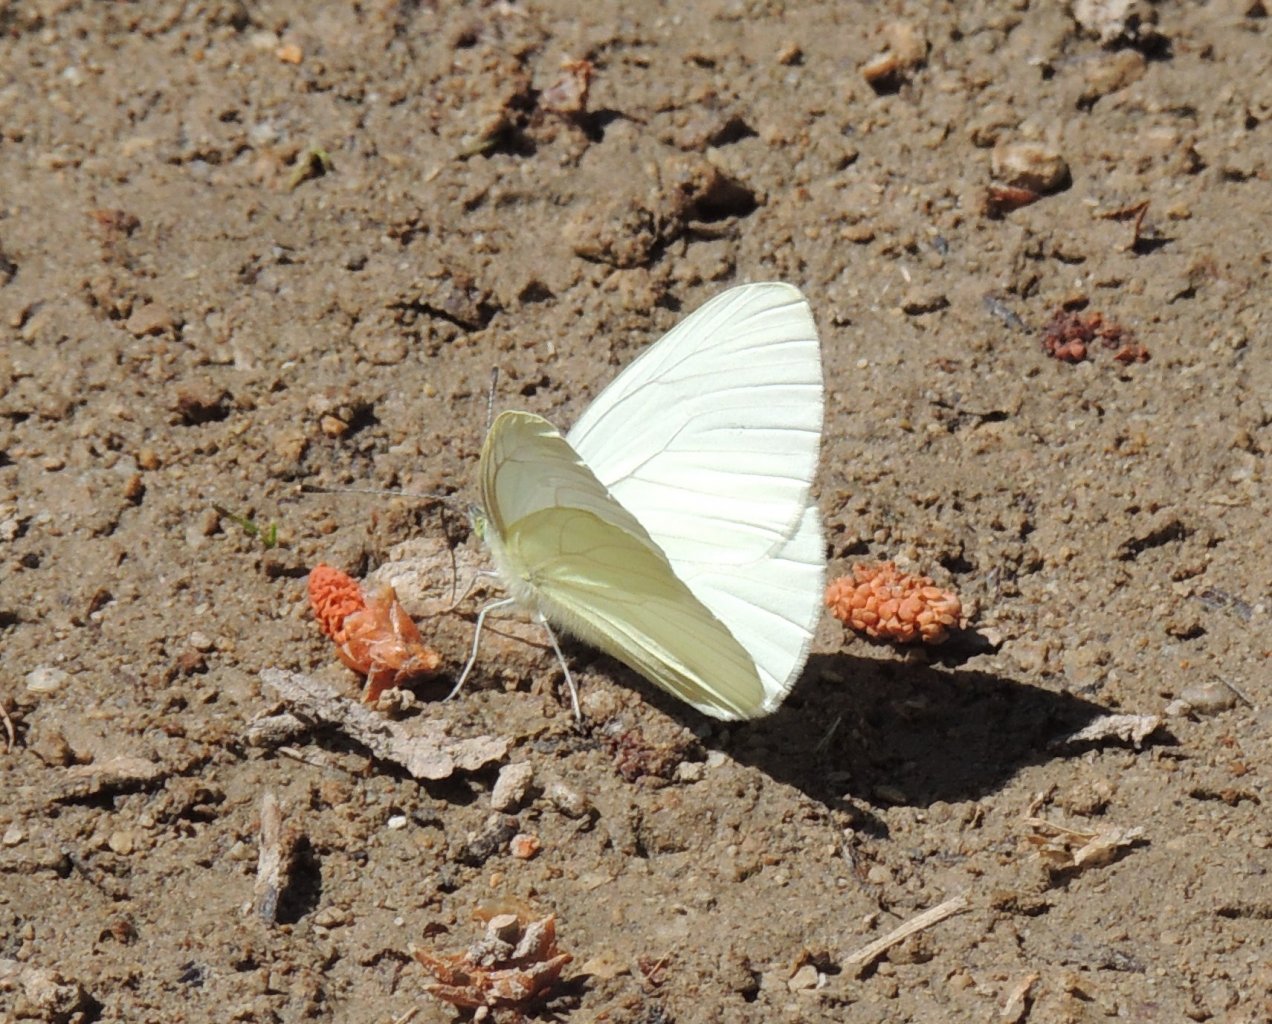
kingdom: Animalia
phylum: Arthropoda
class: Insecta
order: Lepidoptera
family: Pieridae
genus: Pieris
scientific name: Pieris marginalis
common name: Margined White
